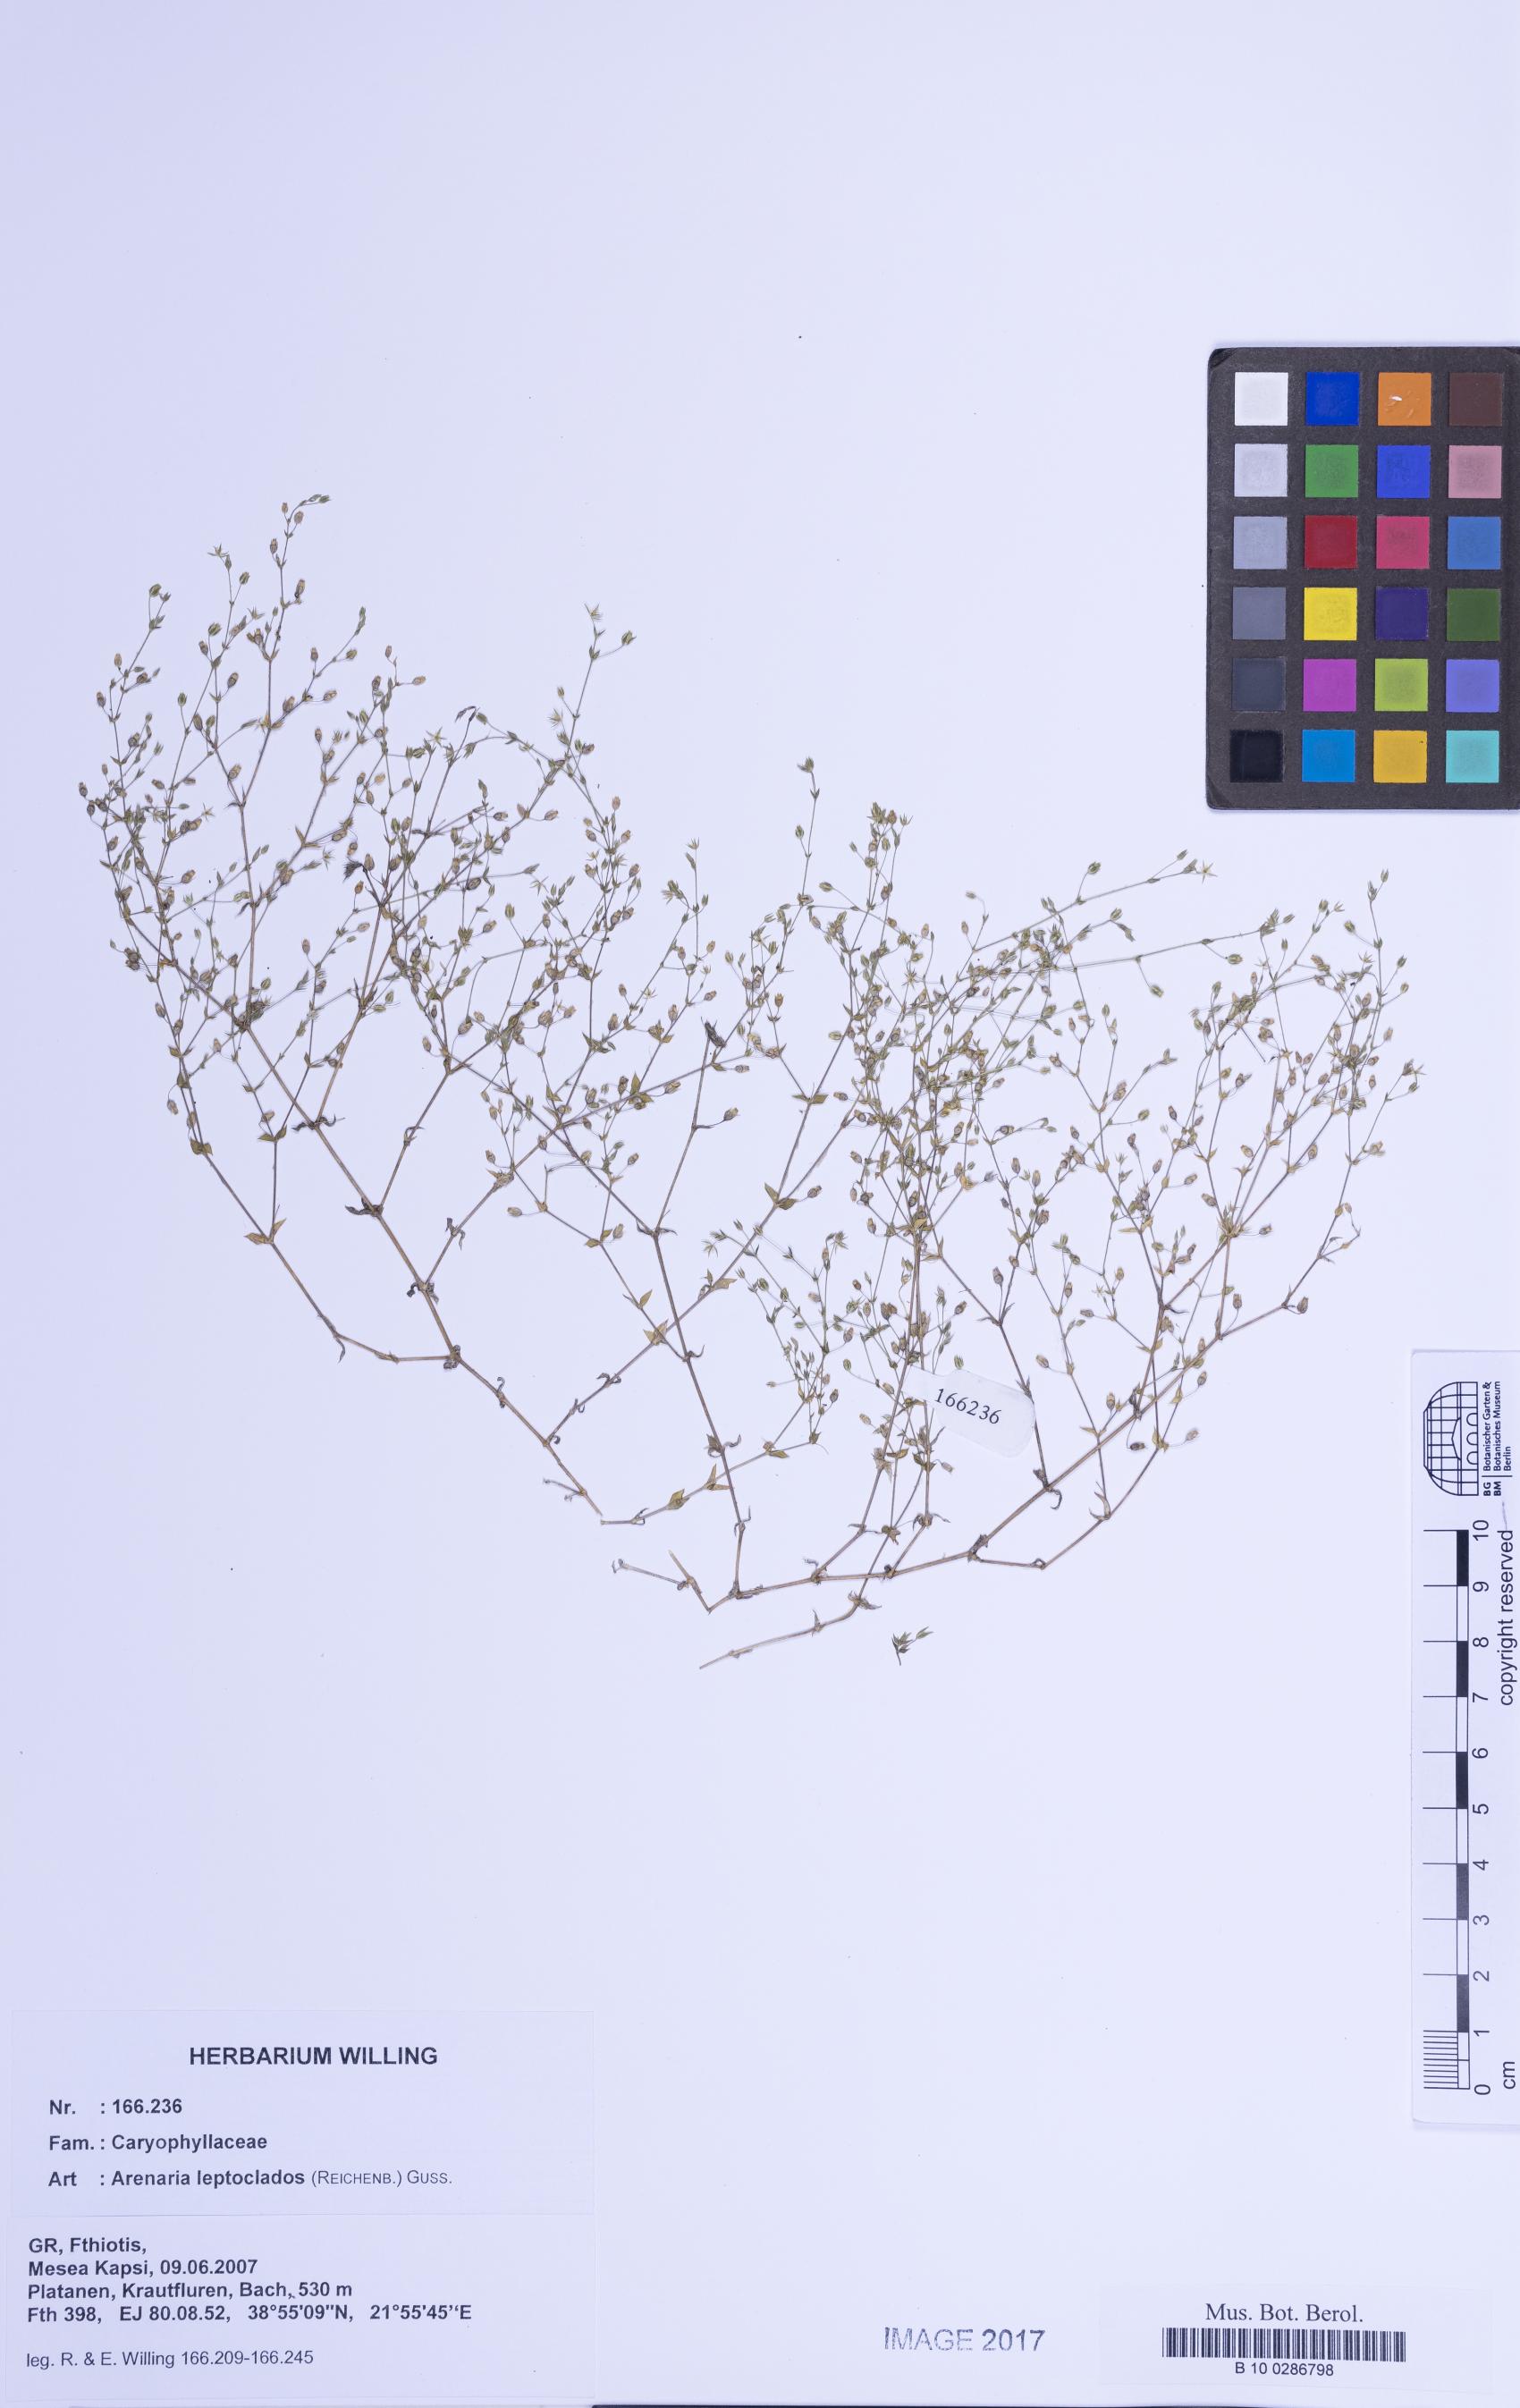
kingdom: Plantae
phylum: Tracheophyta
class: Magnoliopsida
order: Caryophyllales
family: Caryophyllaceae
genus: Arenaria
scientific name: Arenaria leptoclados
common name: Thyme-leaved sandwort
